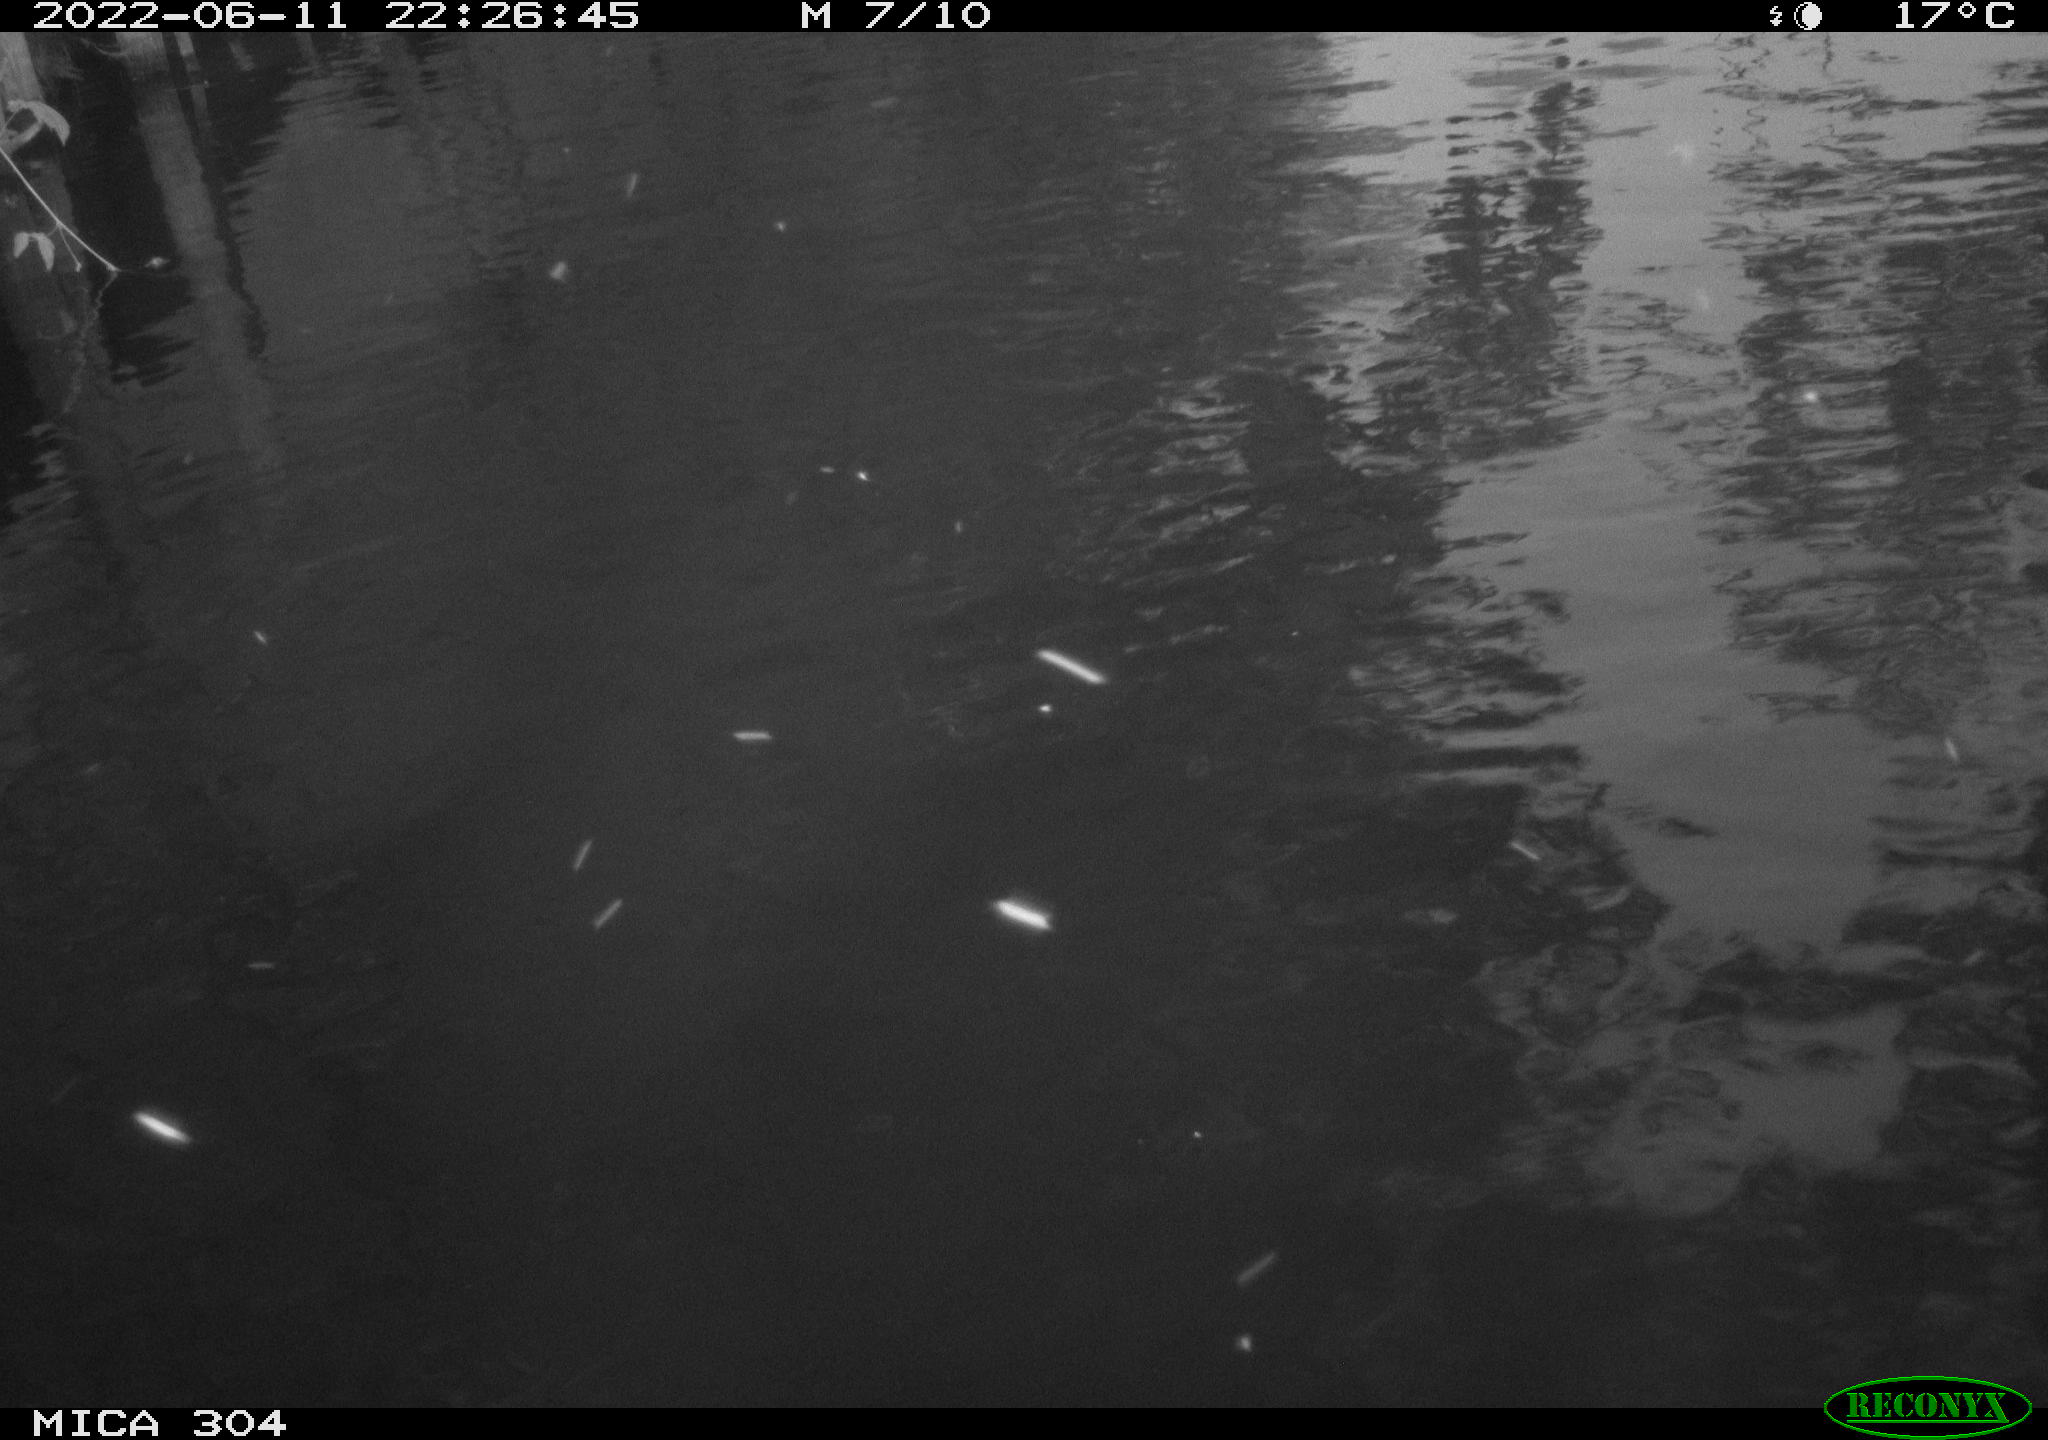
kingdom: Animalia
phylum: Chordata
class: Aves
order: Anseriformes
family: Anatidae
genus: Anas
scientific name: Anas platyrhynchos
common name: Mallard
